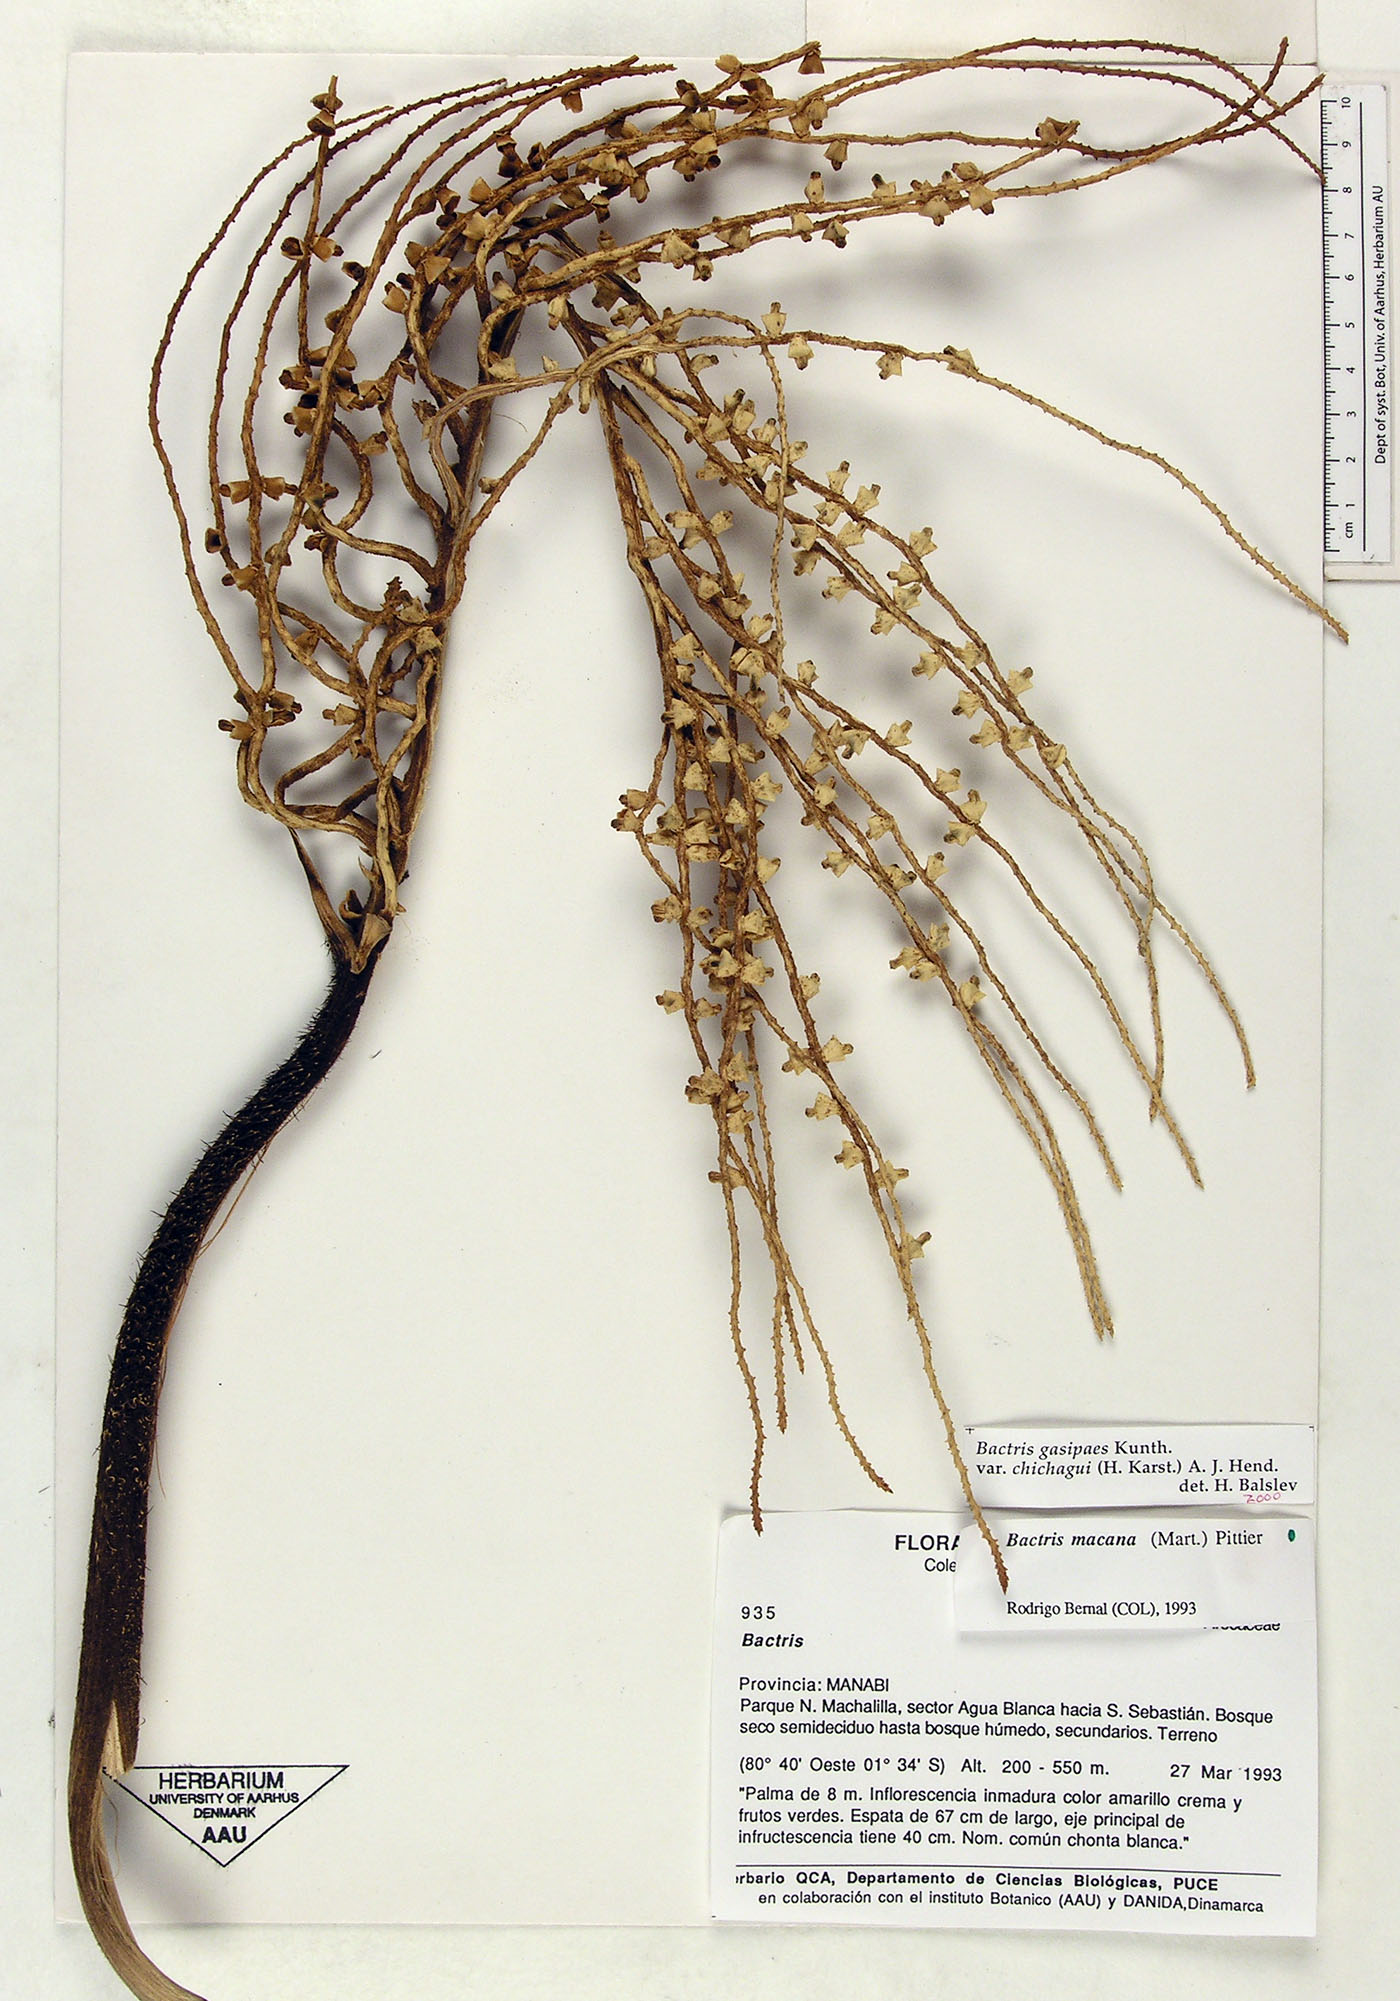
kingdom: Plantae
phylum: Tracheophyta
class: Liliopsida
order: Arecales
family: Arecaceae
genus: Bactris
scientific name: Bactris gasipaes
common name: Peach palm
